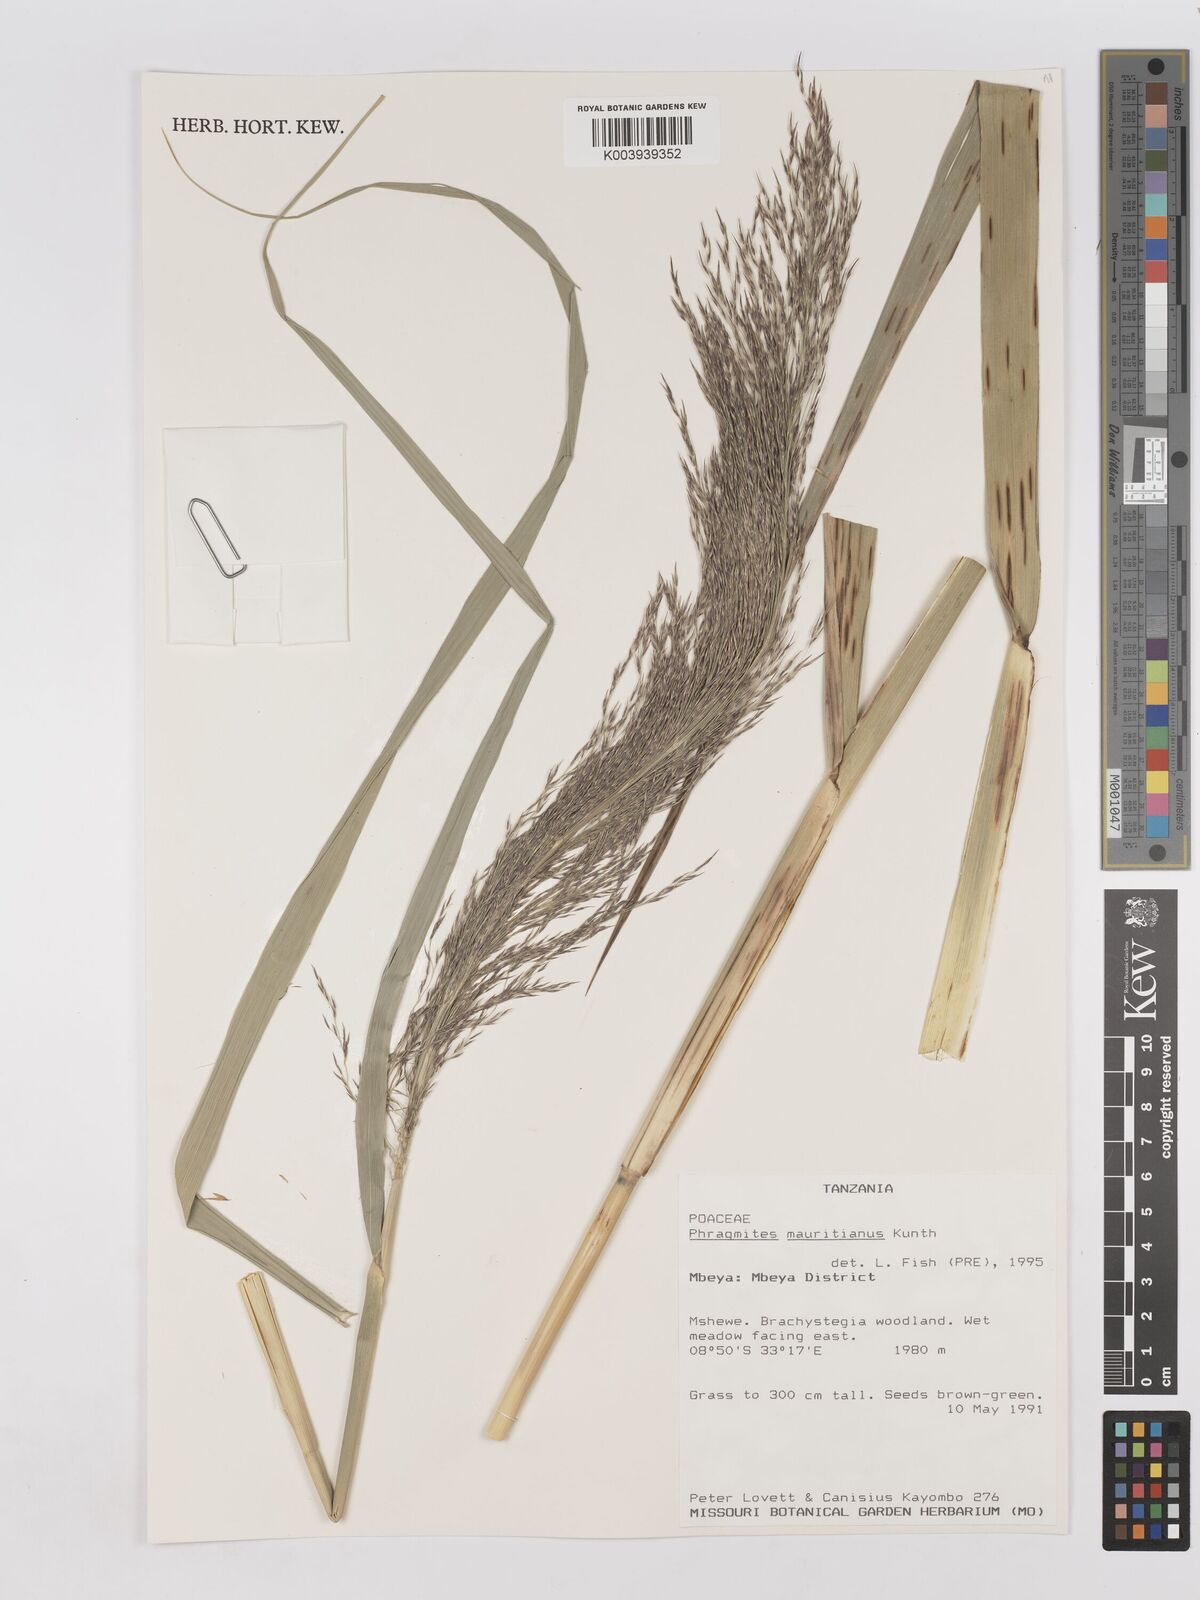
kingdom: Plantae
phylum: Tracheophyta
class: Liliopsida
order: Poales
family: Poaceae
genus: Phragmites
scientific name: Phragmites mauritianus
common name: Reed grass
